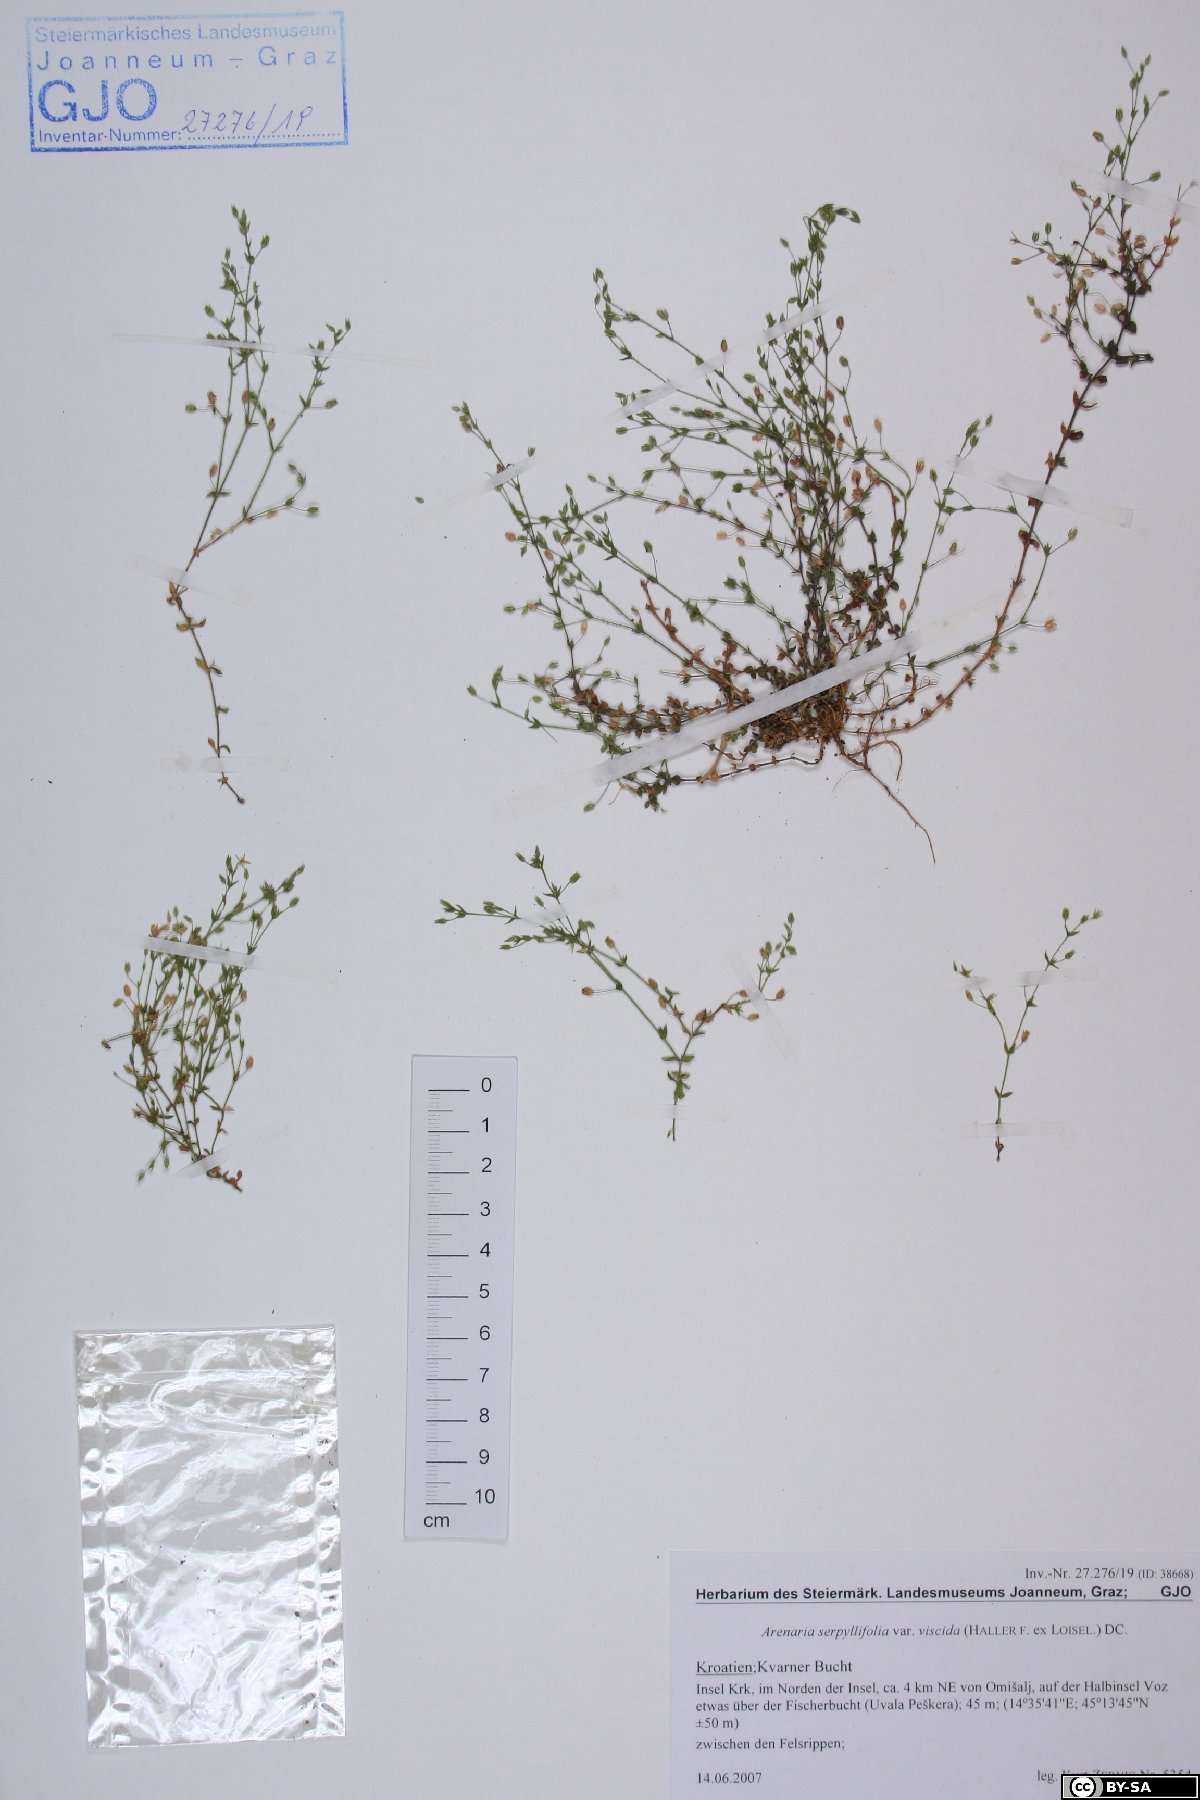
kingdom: Plantae
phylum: Tracheophyta
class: Magnoliopsida
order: Caryophyllales
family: Caryophyllaceae
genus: Arenaria
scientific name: Arenaria serpyllifolia
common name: Thyme-leaved sandwort
